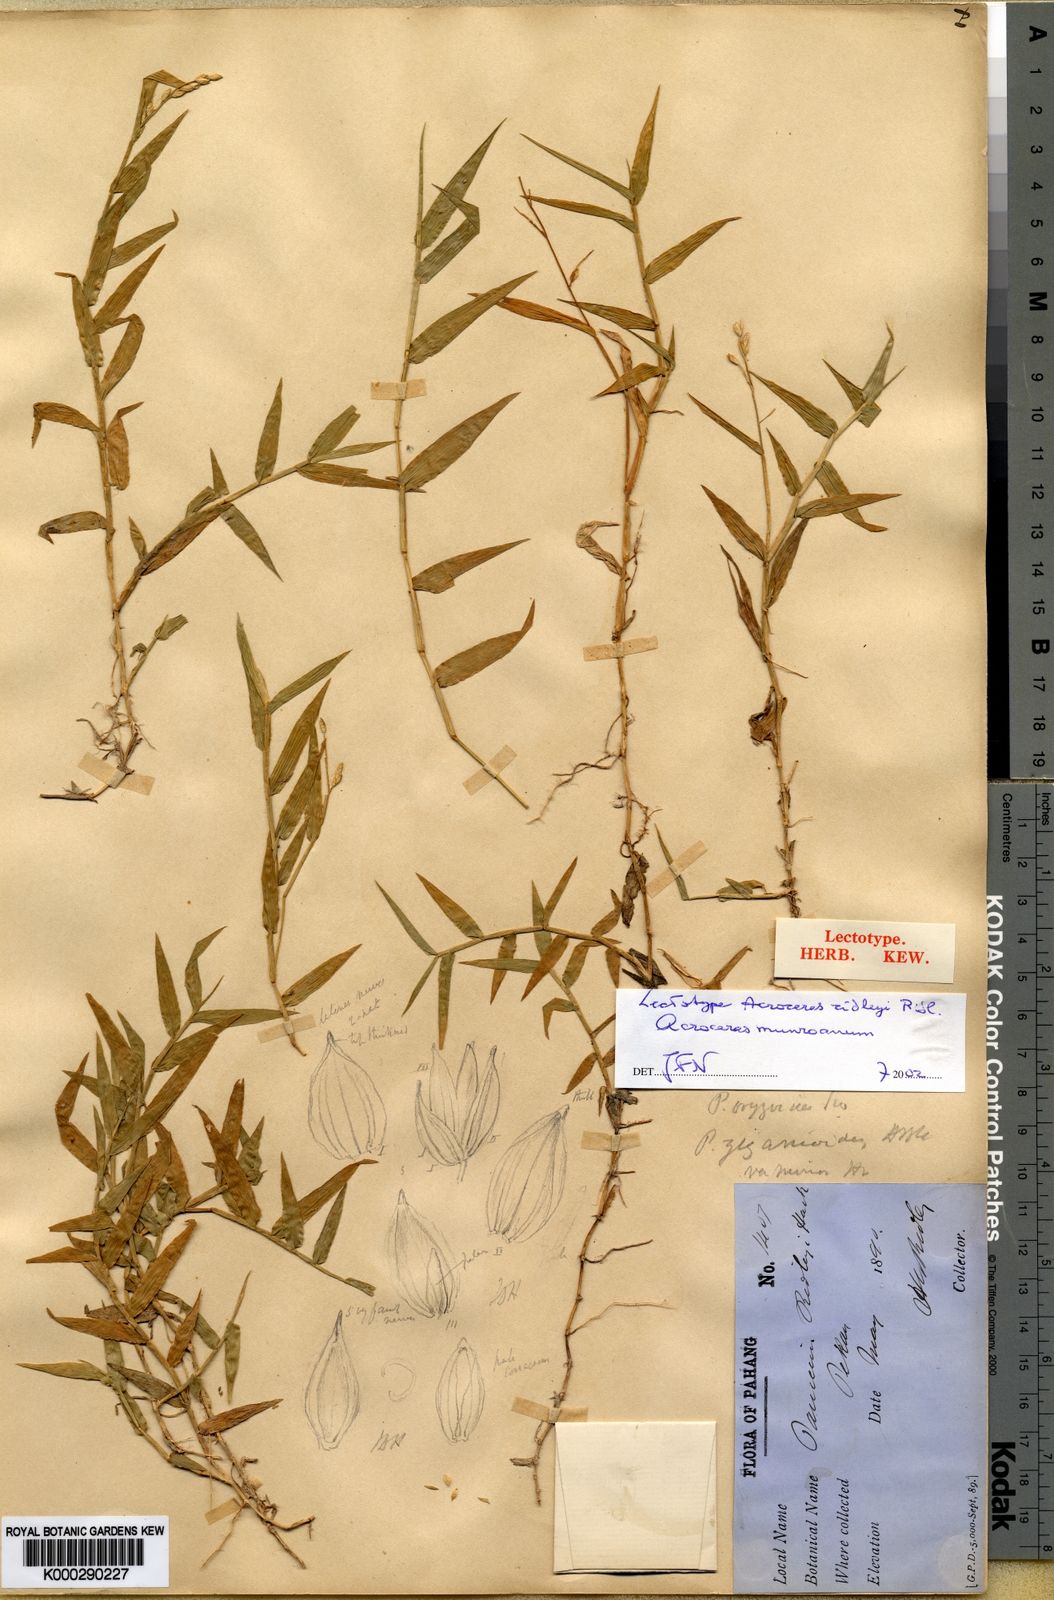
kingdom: Plantae
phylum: Tracheophyta
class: Liliopsida
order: Poales
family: Poaceae
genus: Acroceras
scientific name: Acroceras munroanum
